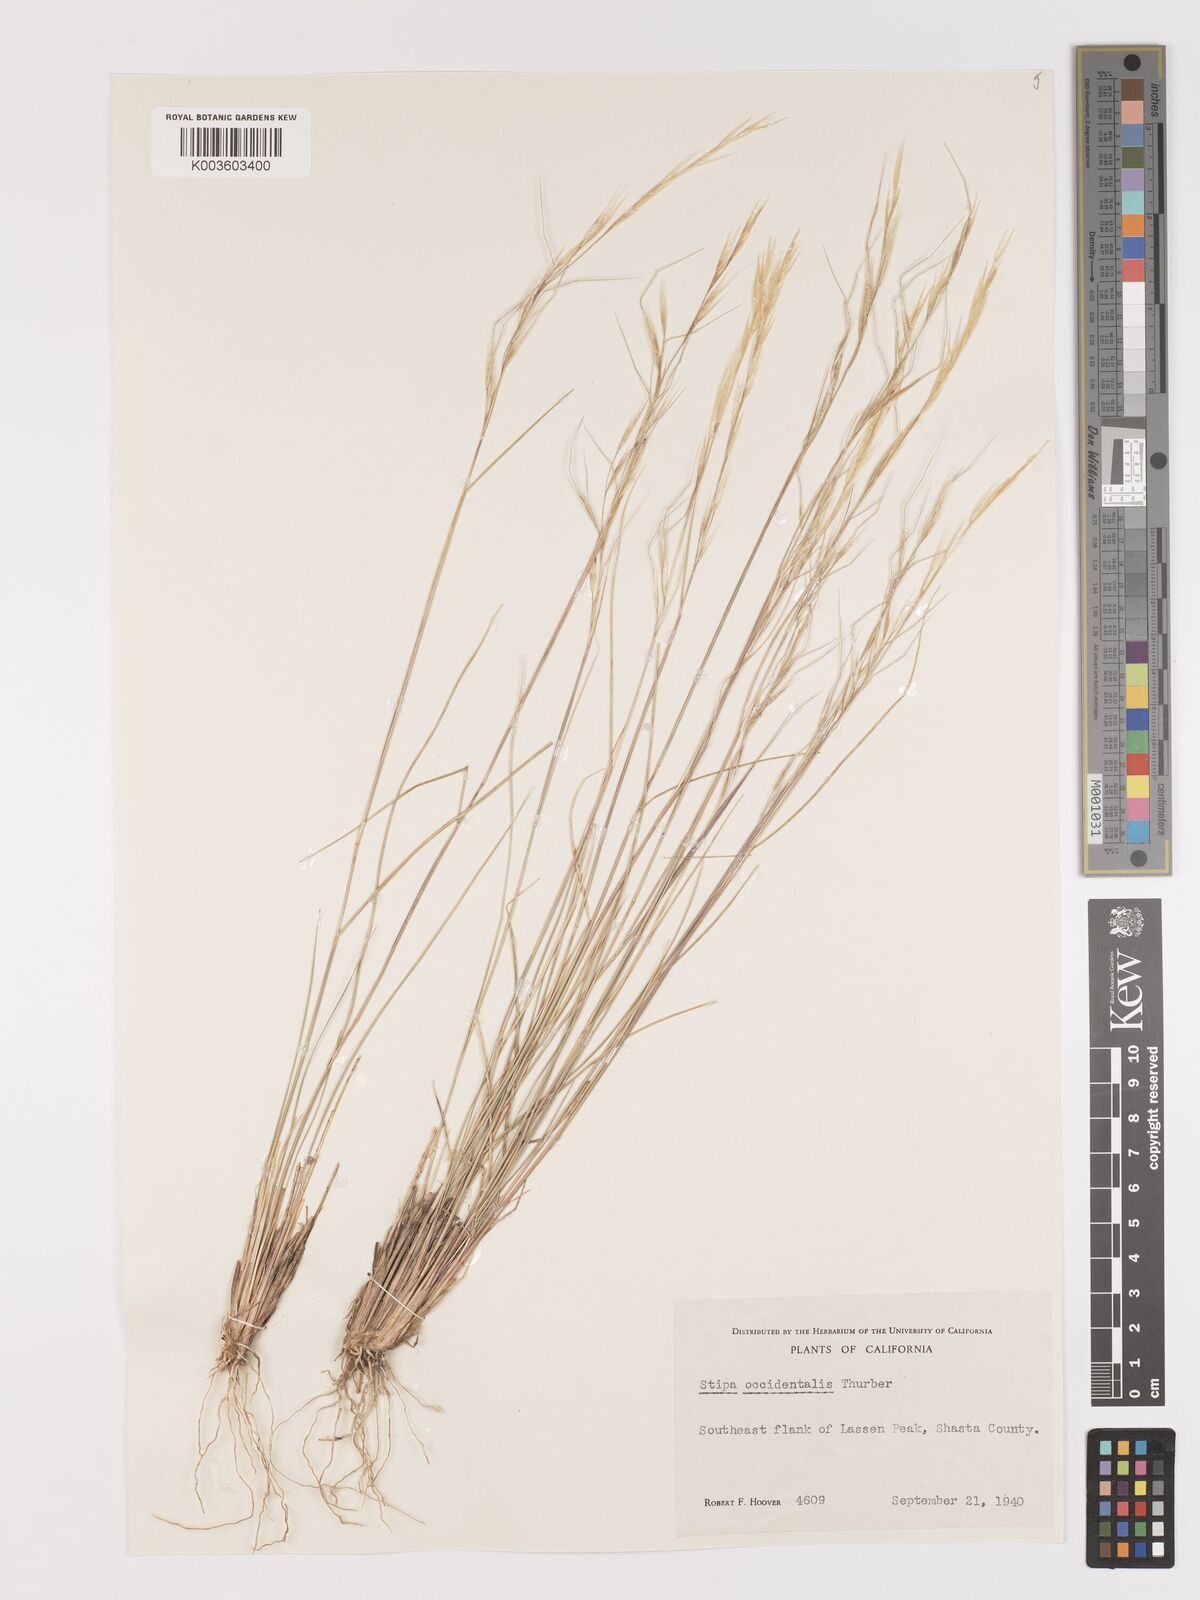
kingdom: Plantae
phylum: Tracheophyta
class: Liliopsida
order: Poales
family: Poaceae
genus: Eriocoma
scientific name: Eriocoma thurberiana
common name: Thurber's needlegrass
